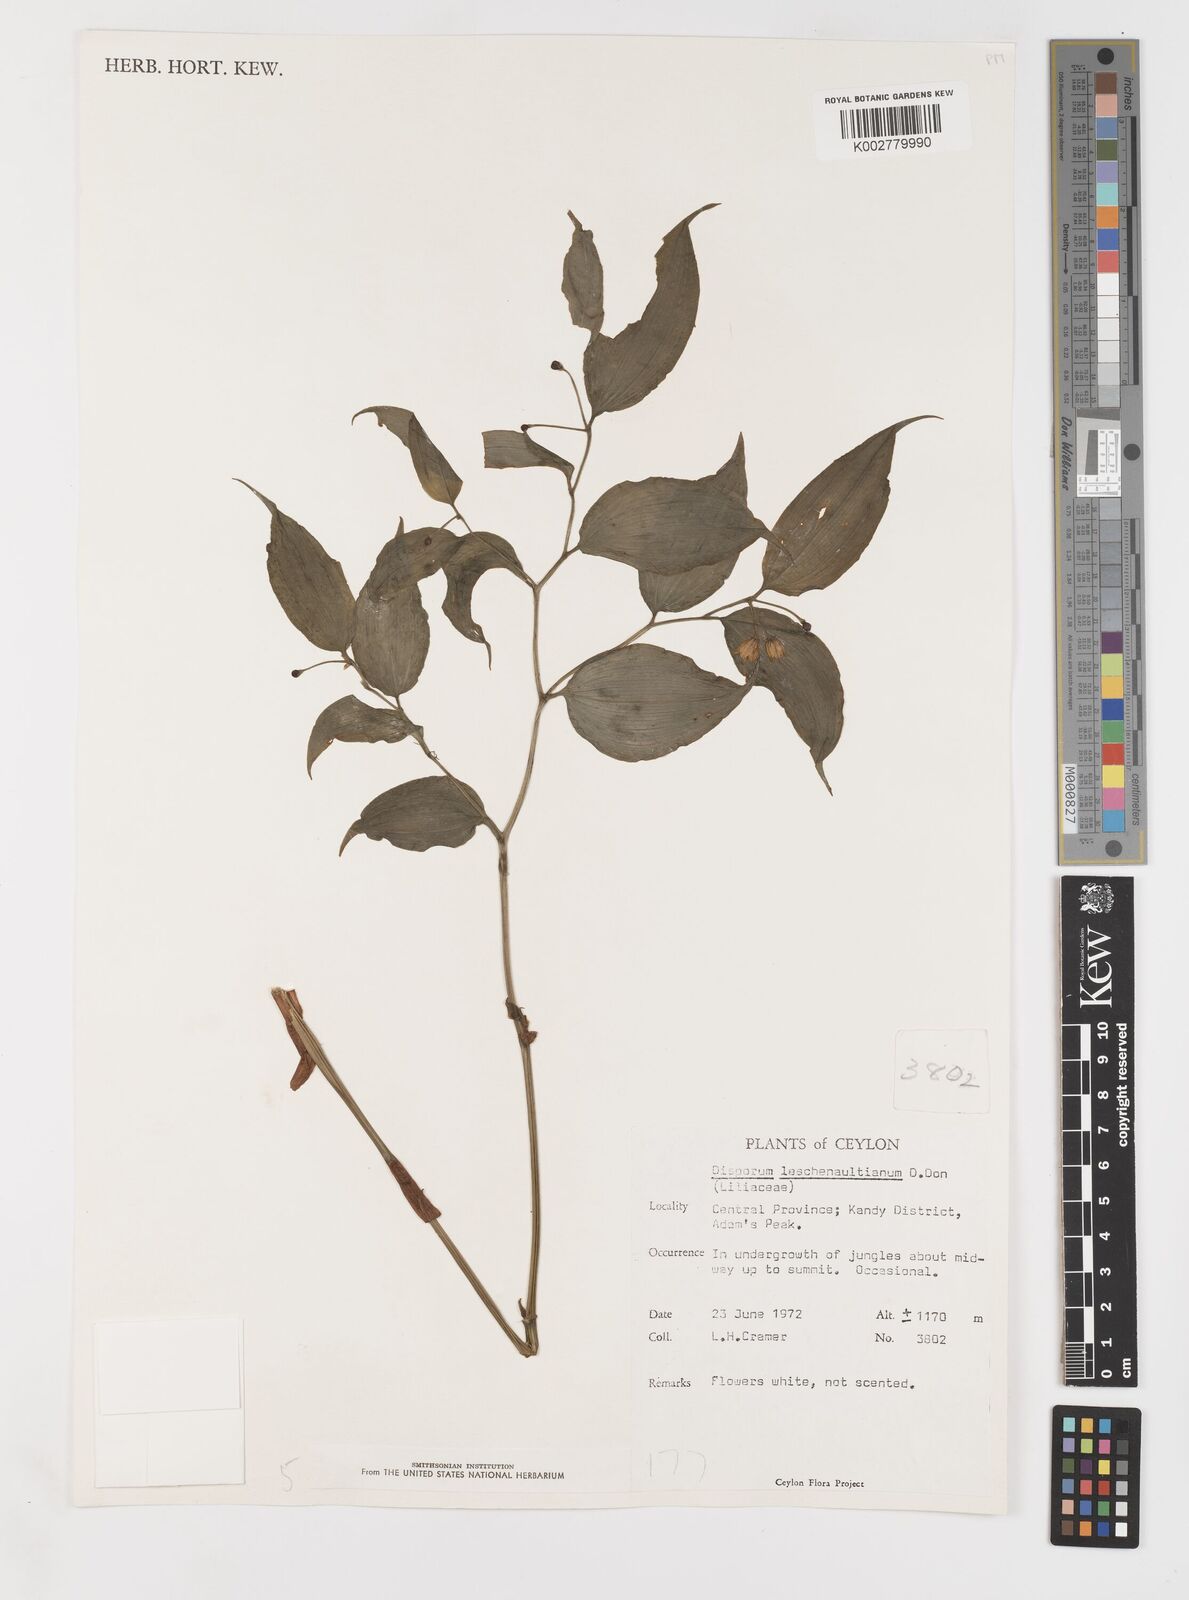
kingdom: Plantae
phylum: Tracheophyta
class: Liliopsida
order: Liliales
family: Colchicaceae
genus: Disporum
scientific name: Disporum cantoniense
